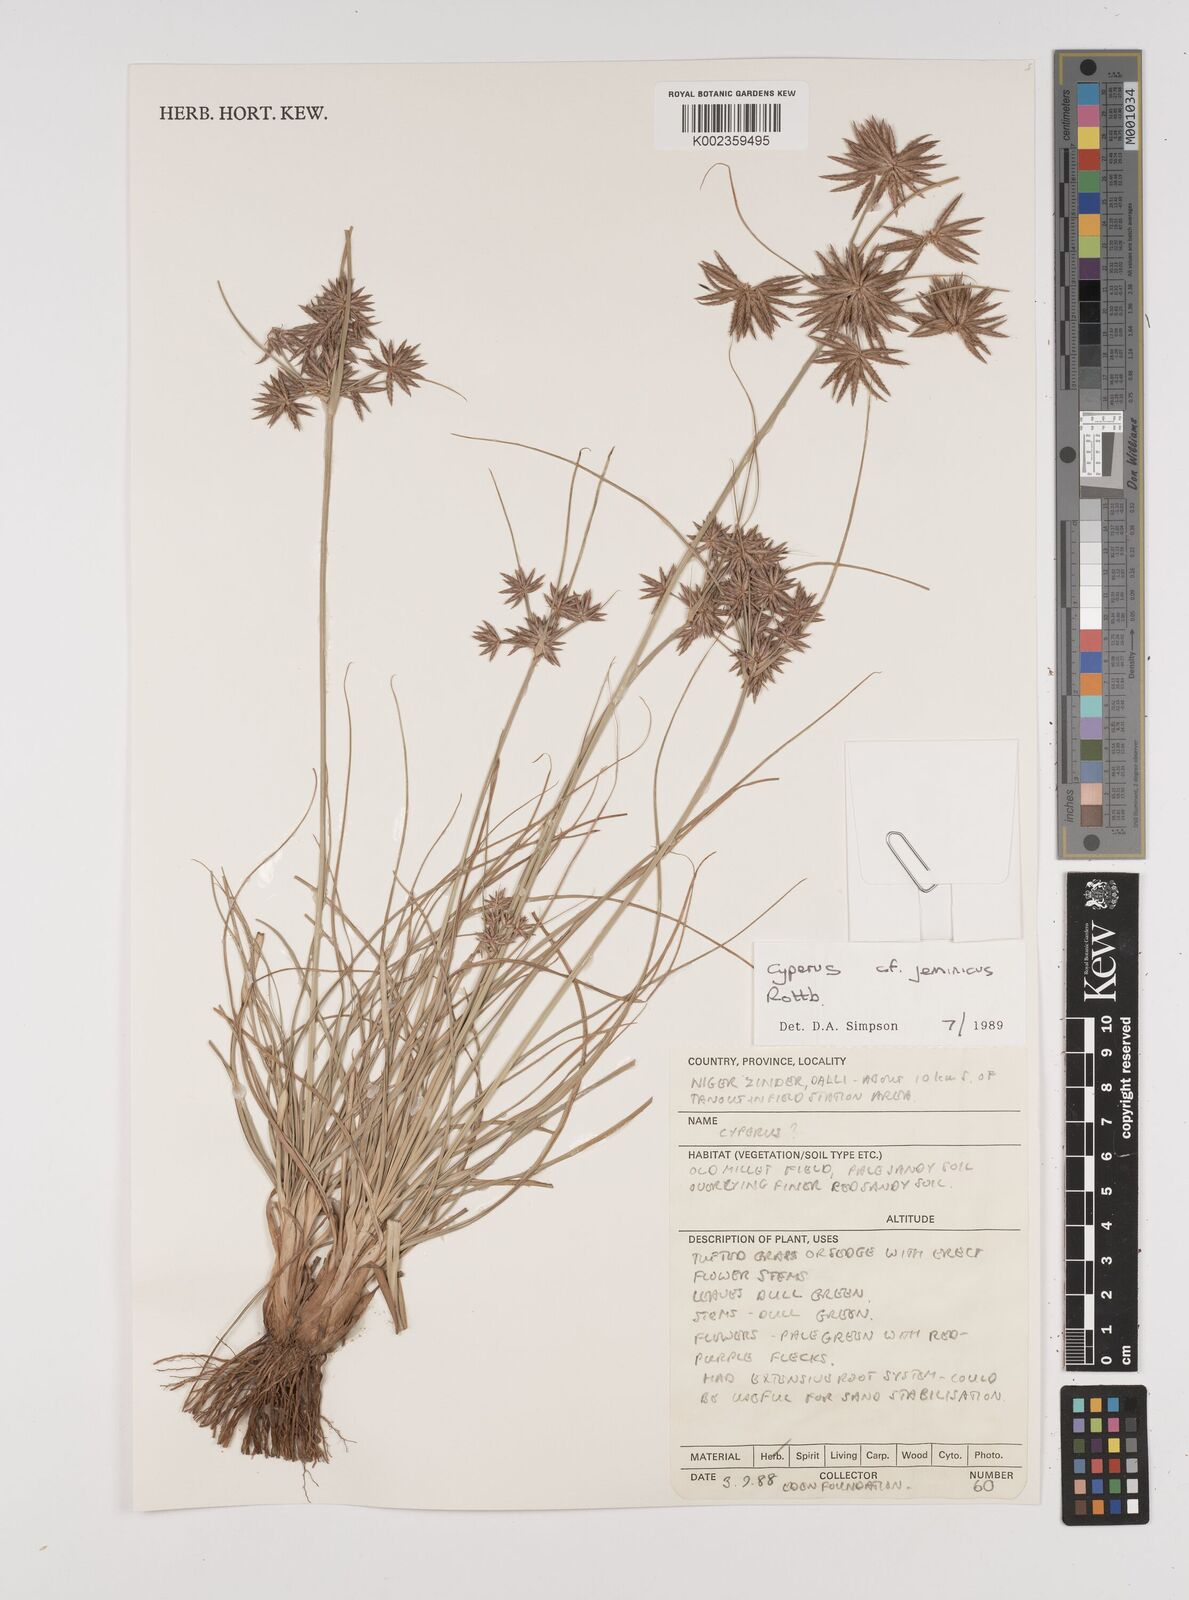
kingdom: Plantae
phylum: Tracheophyta
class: Liliopsida
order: Poales
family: Cyperaceae
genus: Cyperus
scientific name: Cyperus jeminicus
